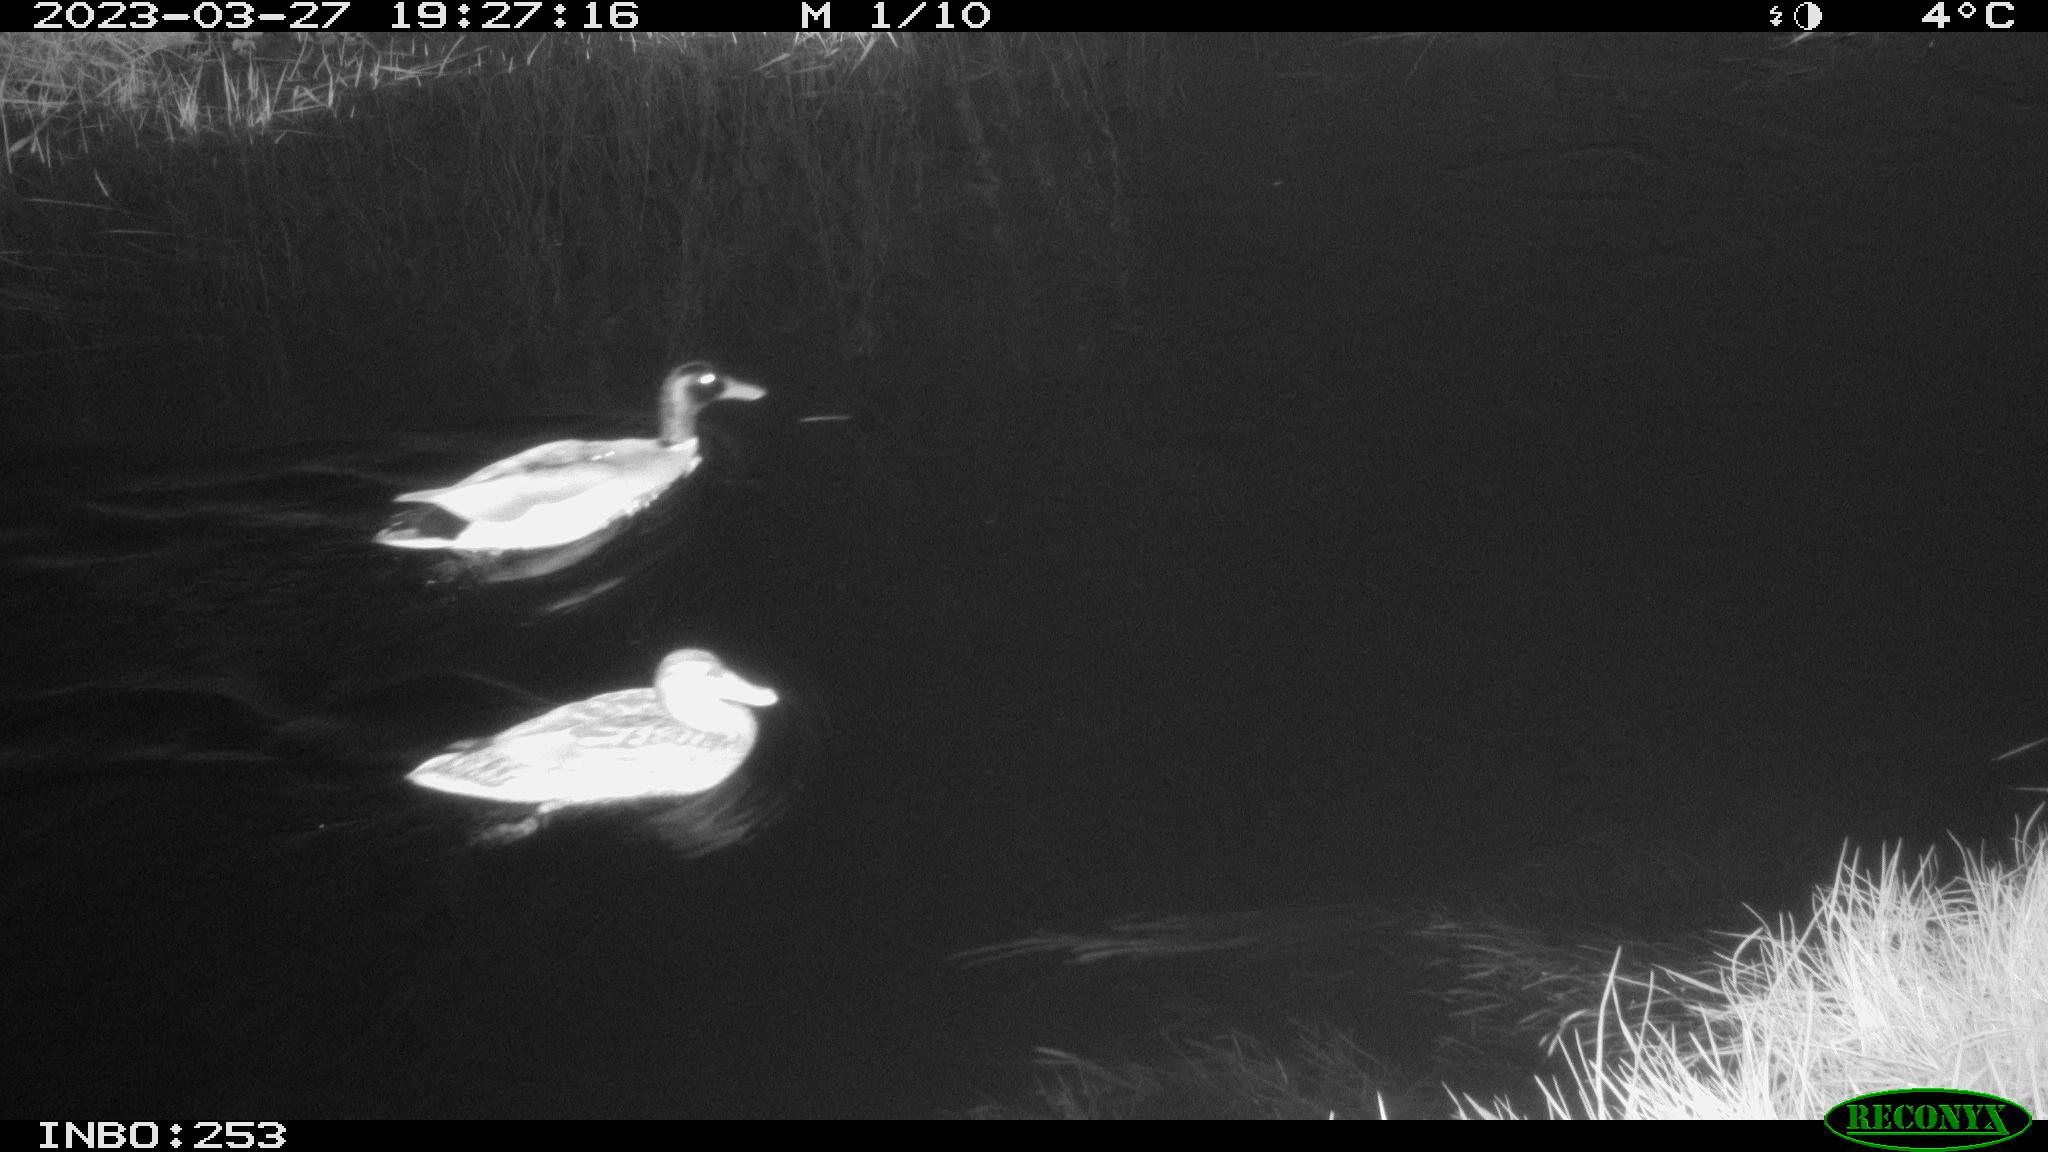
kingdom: Animalia
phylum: Chordata
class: Aves
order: Anseriformes
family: Anatidae
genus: Anas
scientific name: Anas
